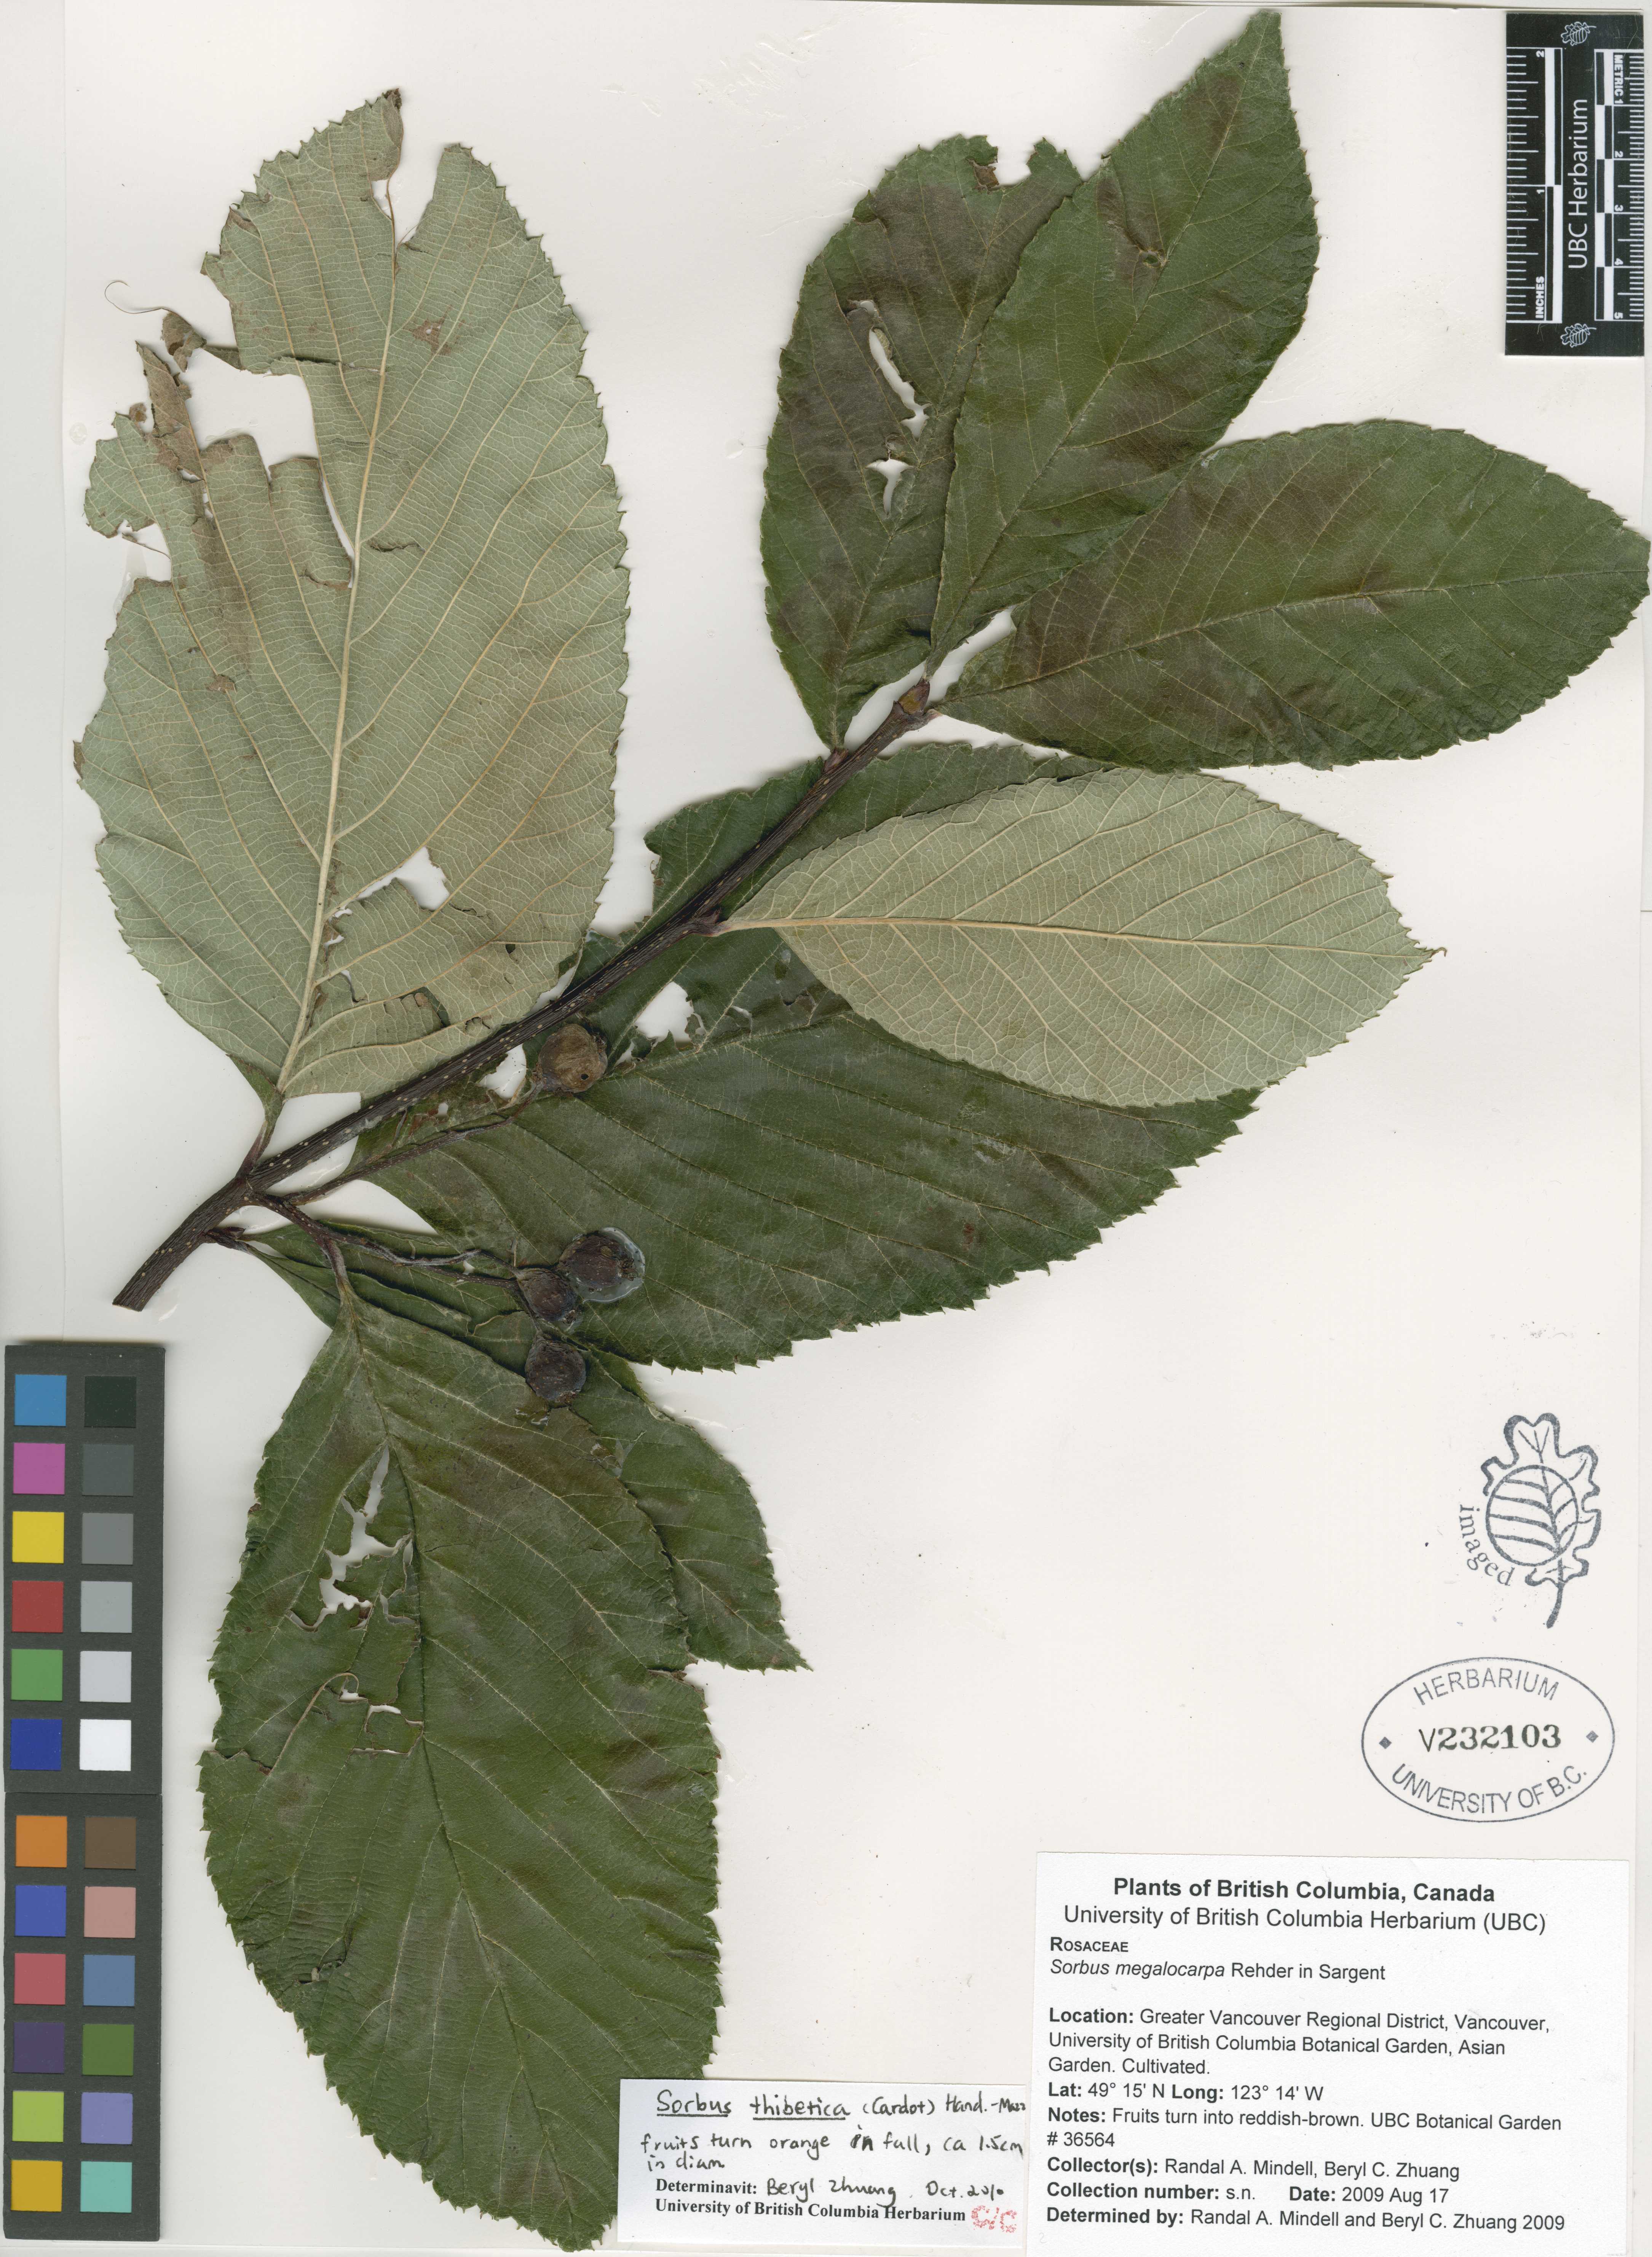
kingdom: Plantae
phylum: Tracheophyta
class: Magnoliopsida
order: Rosales
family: Rosaceae
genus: Sorbus
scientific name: Sorbus thibetica
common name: Thibetan whitebeam
